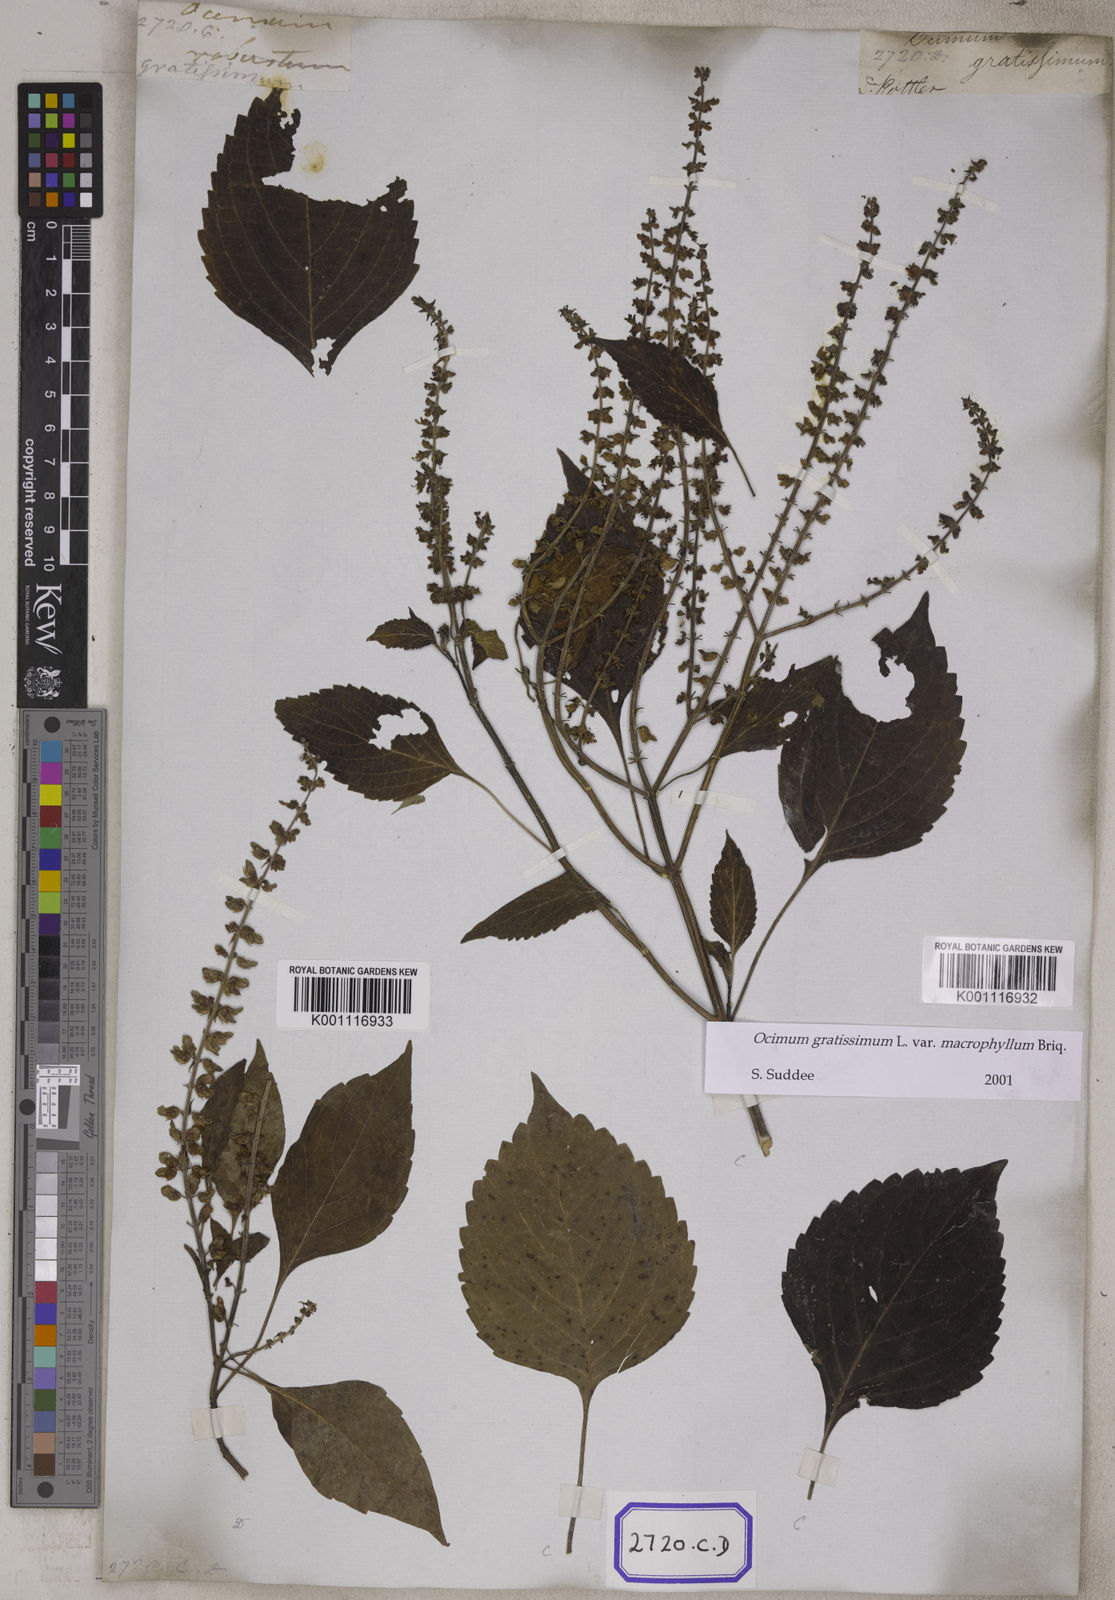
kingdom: Plantae
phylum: Tracheophyta
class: Magnoliopsida
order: Lamiales
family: Lamiaceae
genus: Ocimum
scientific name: Ocimum gratissimum
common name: African basil
